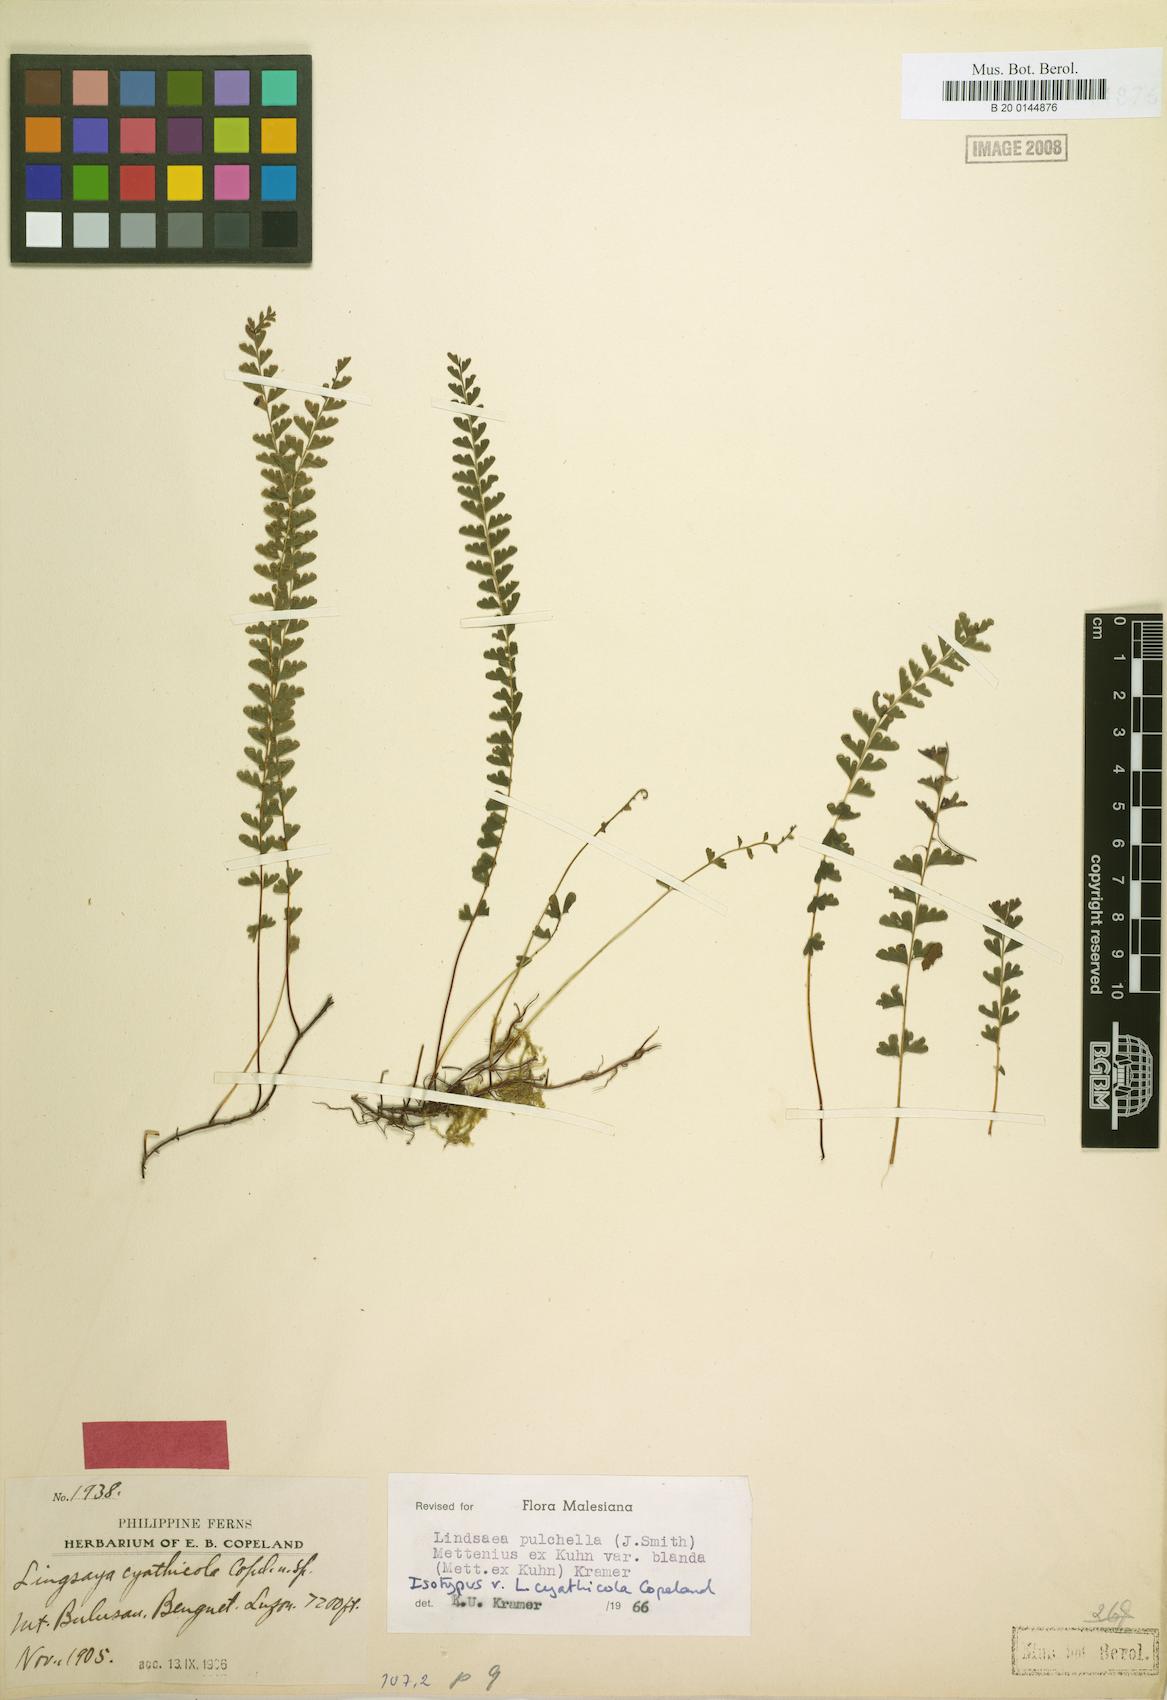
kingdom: Plantae
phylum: Tracheophyta
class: Polypodiopsida
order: Polypodiales
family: Lindsaeaceae
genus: Lindsaea
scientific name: Lindsaea blanda
